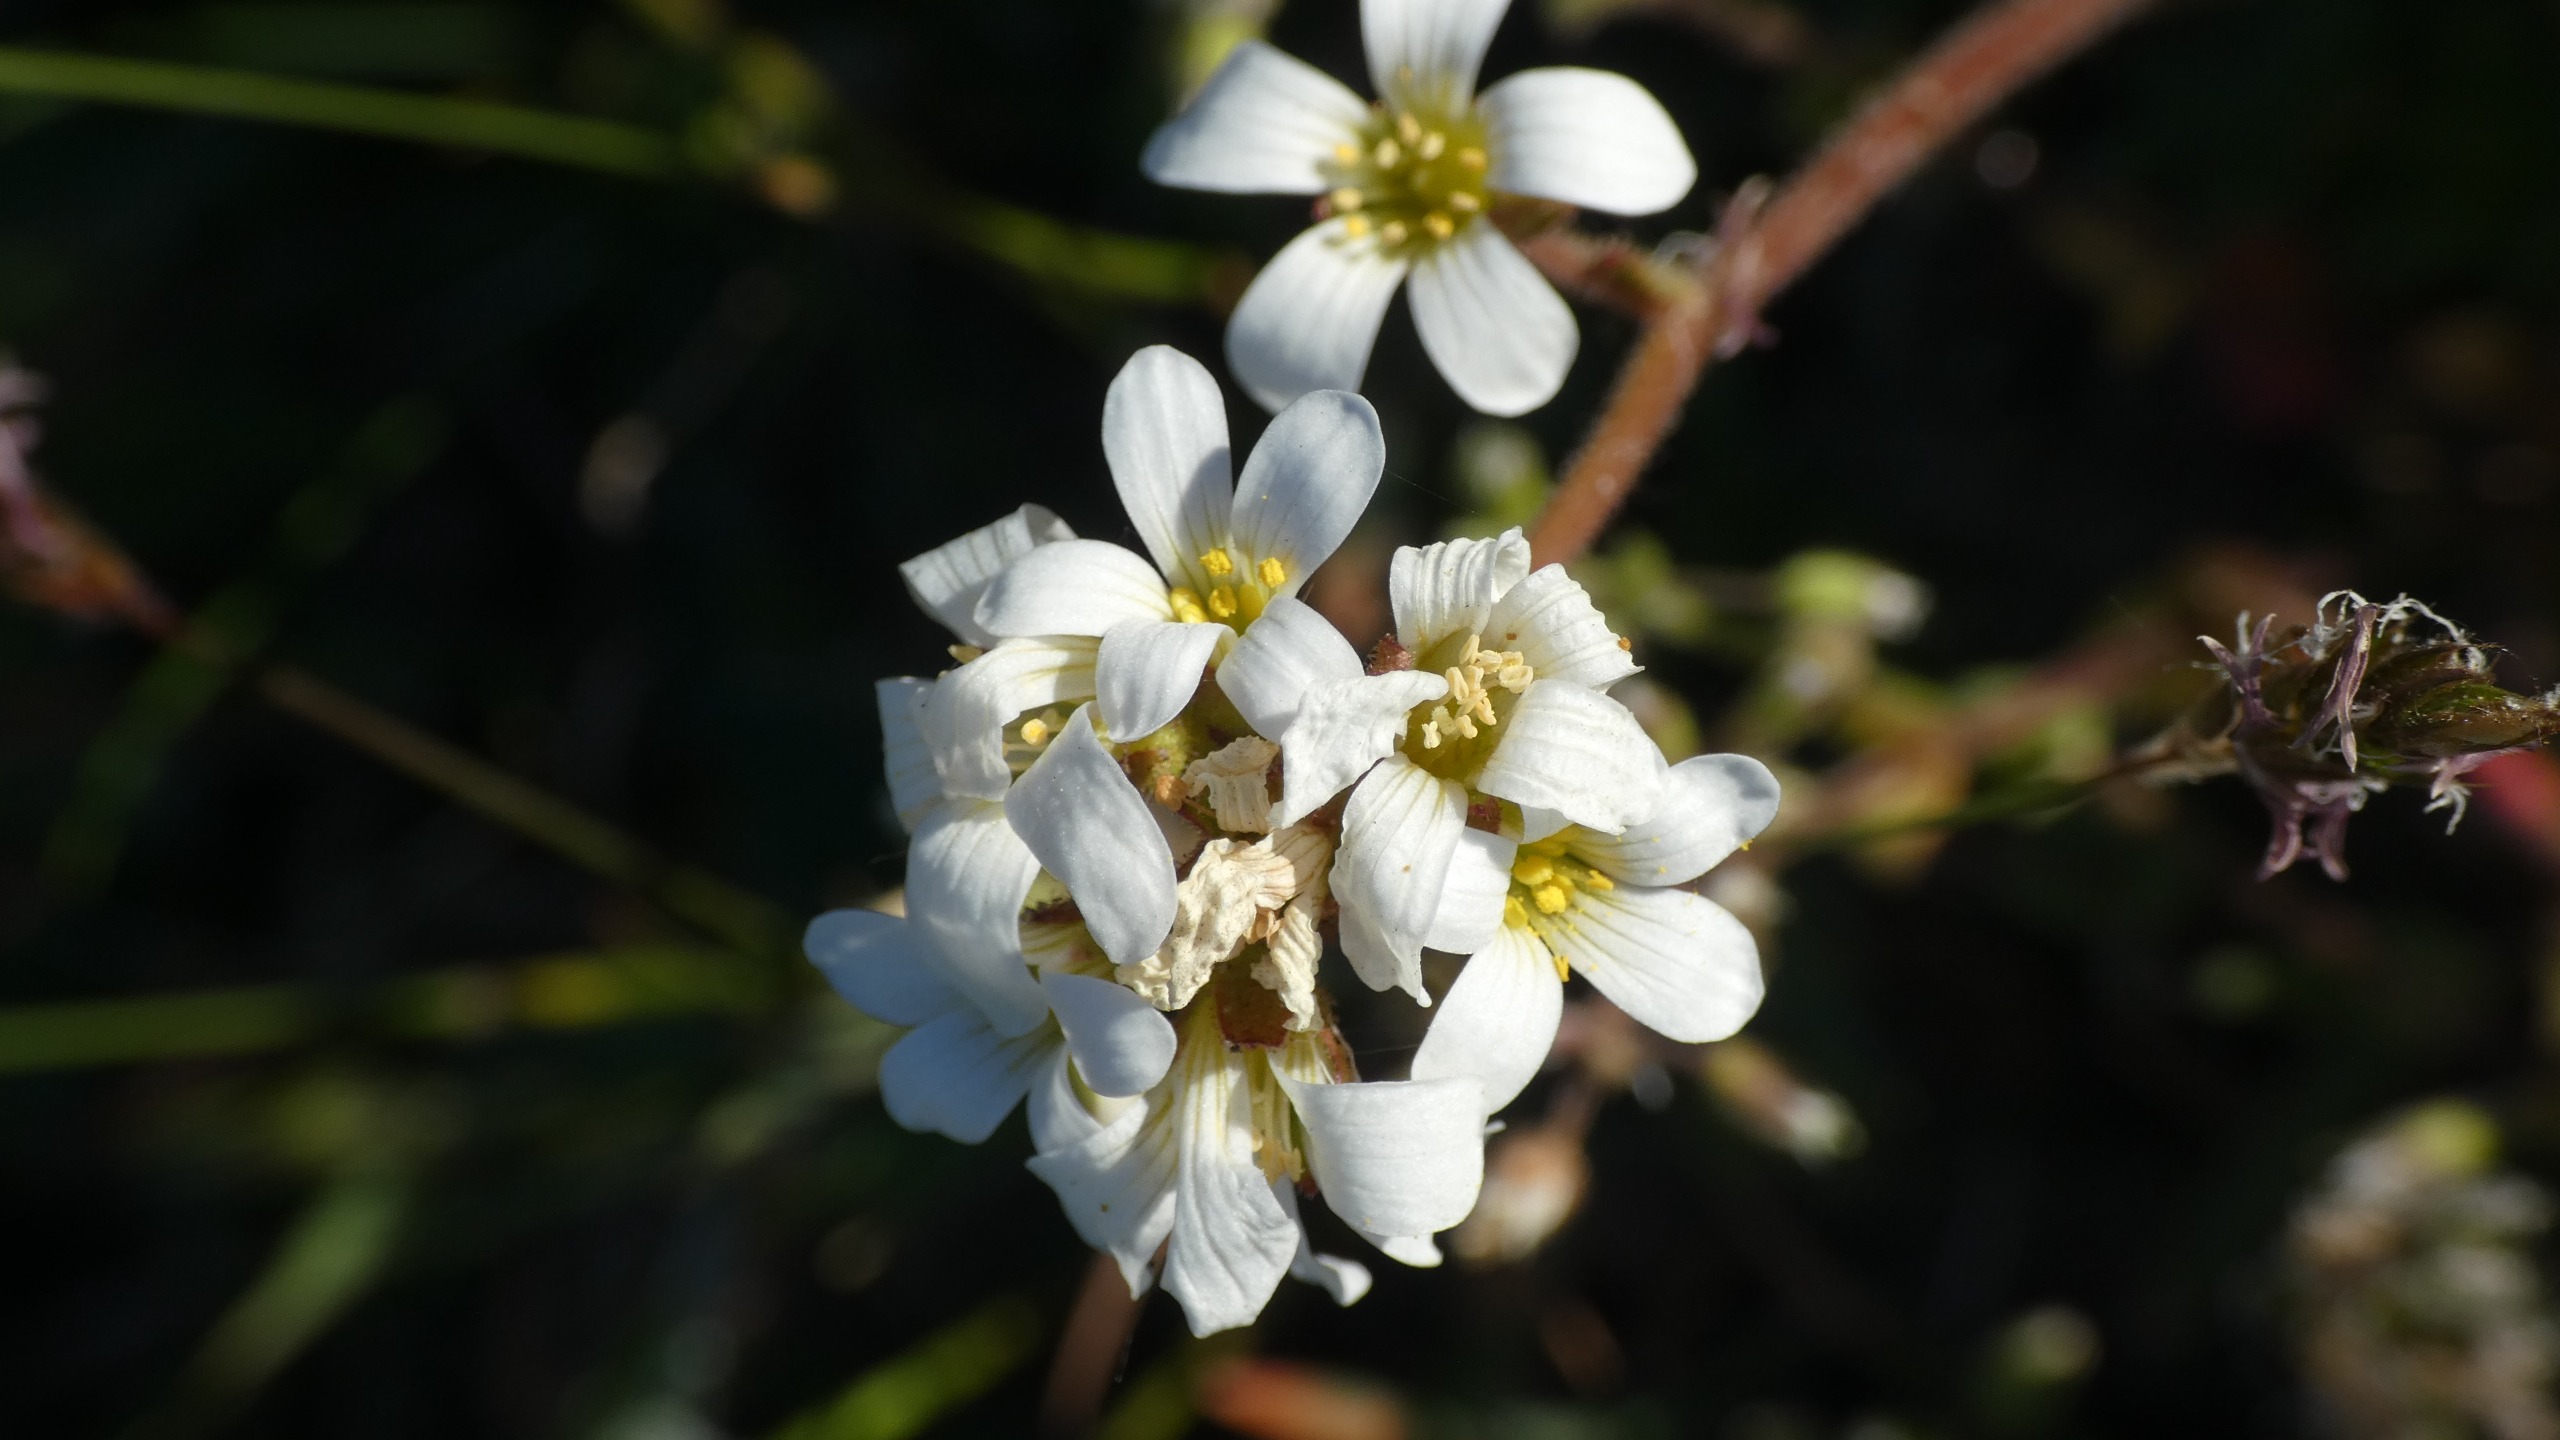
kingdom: Plantae
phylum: Tracheophyta
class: Magnoliopsida
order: Saxifragales
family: Saxifragaceae
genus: Saxifraga
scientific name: Saxifraga granulata
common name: Kornet stenbræk
